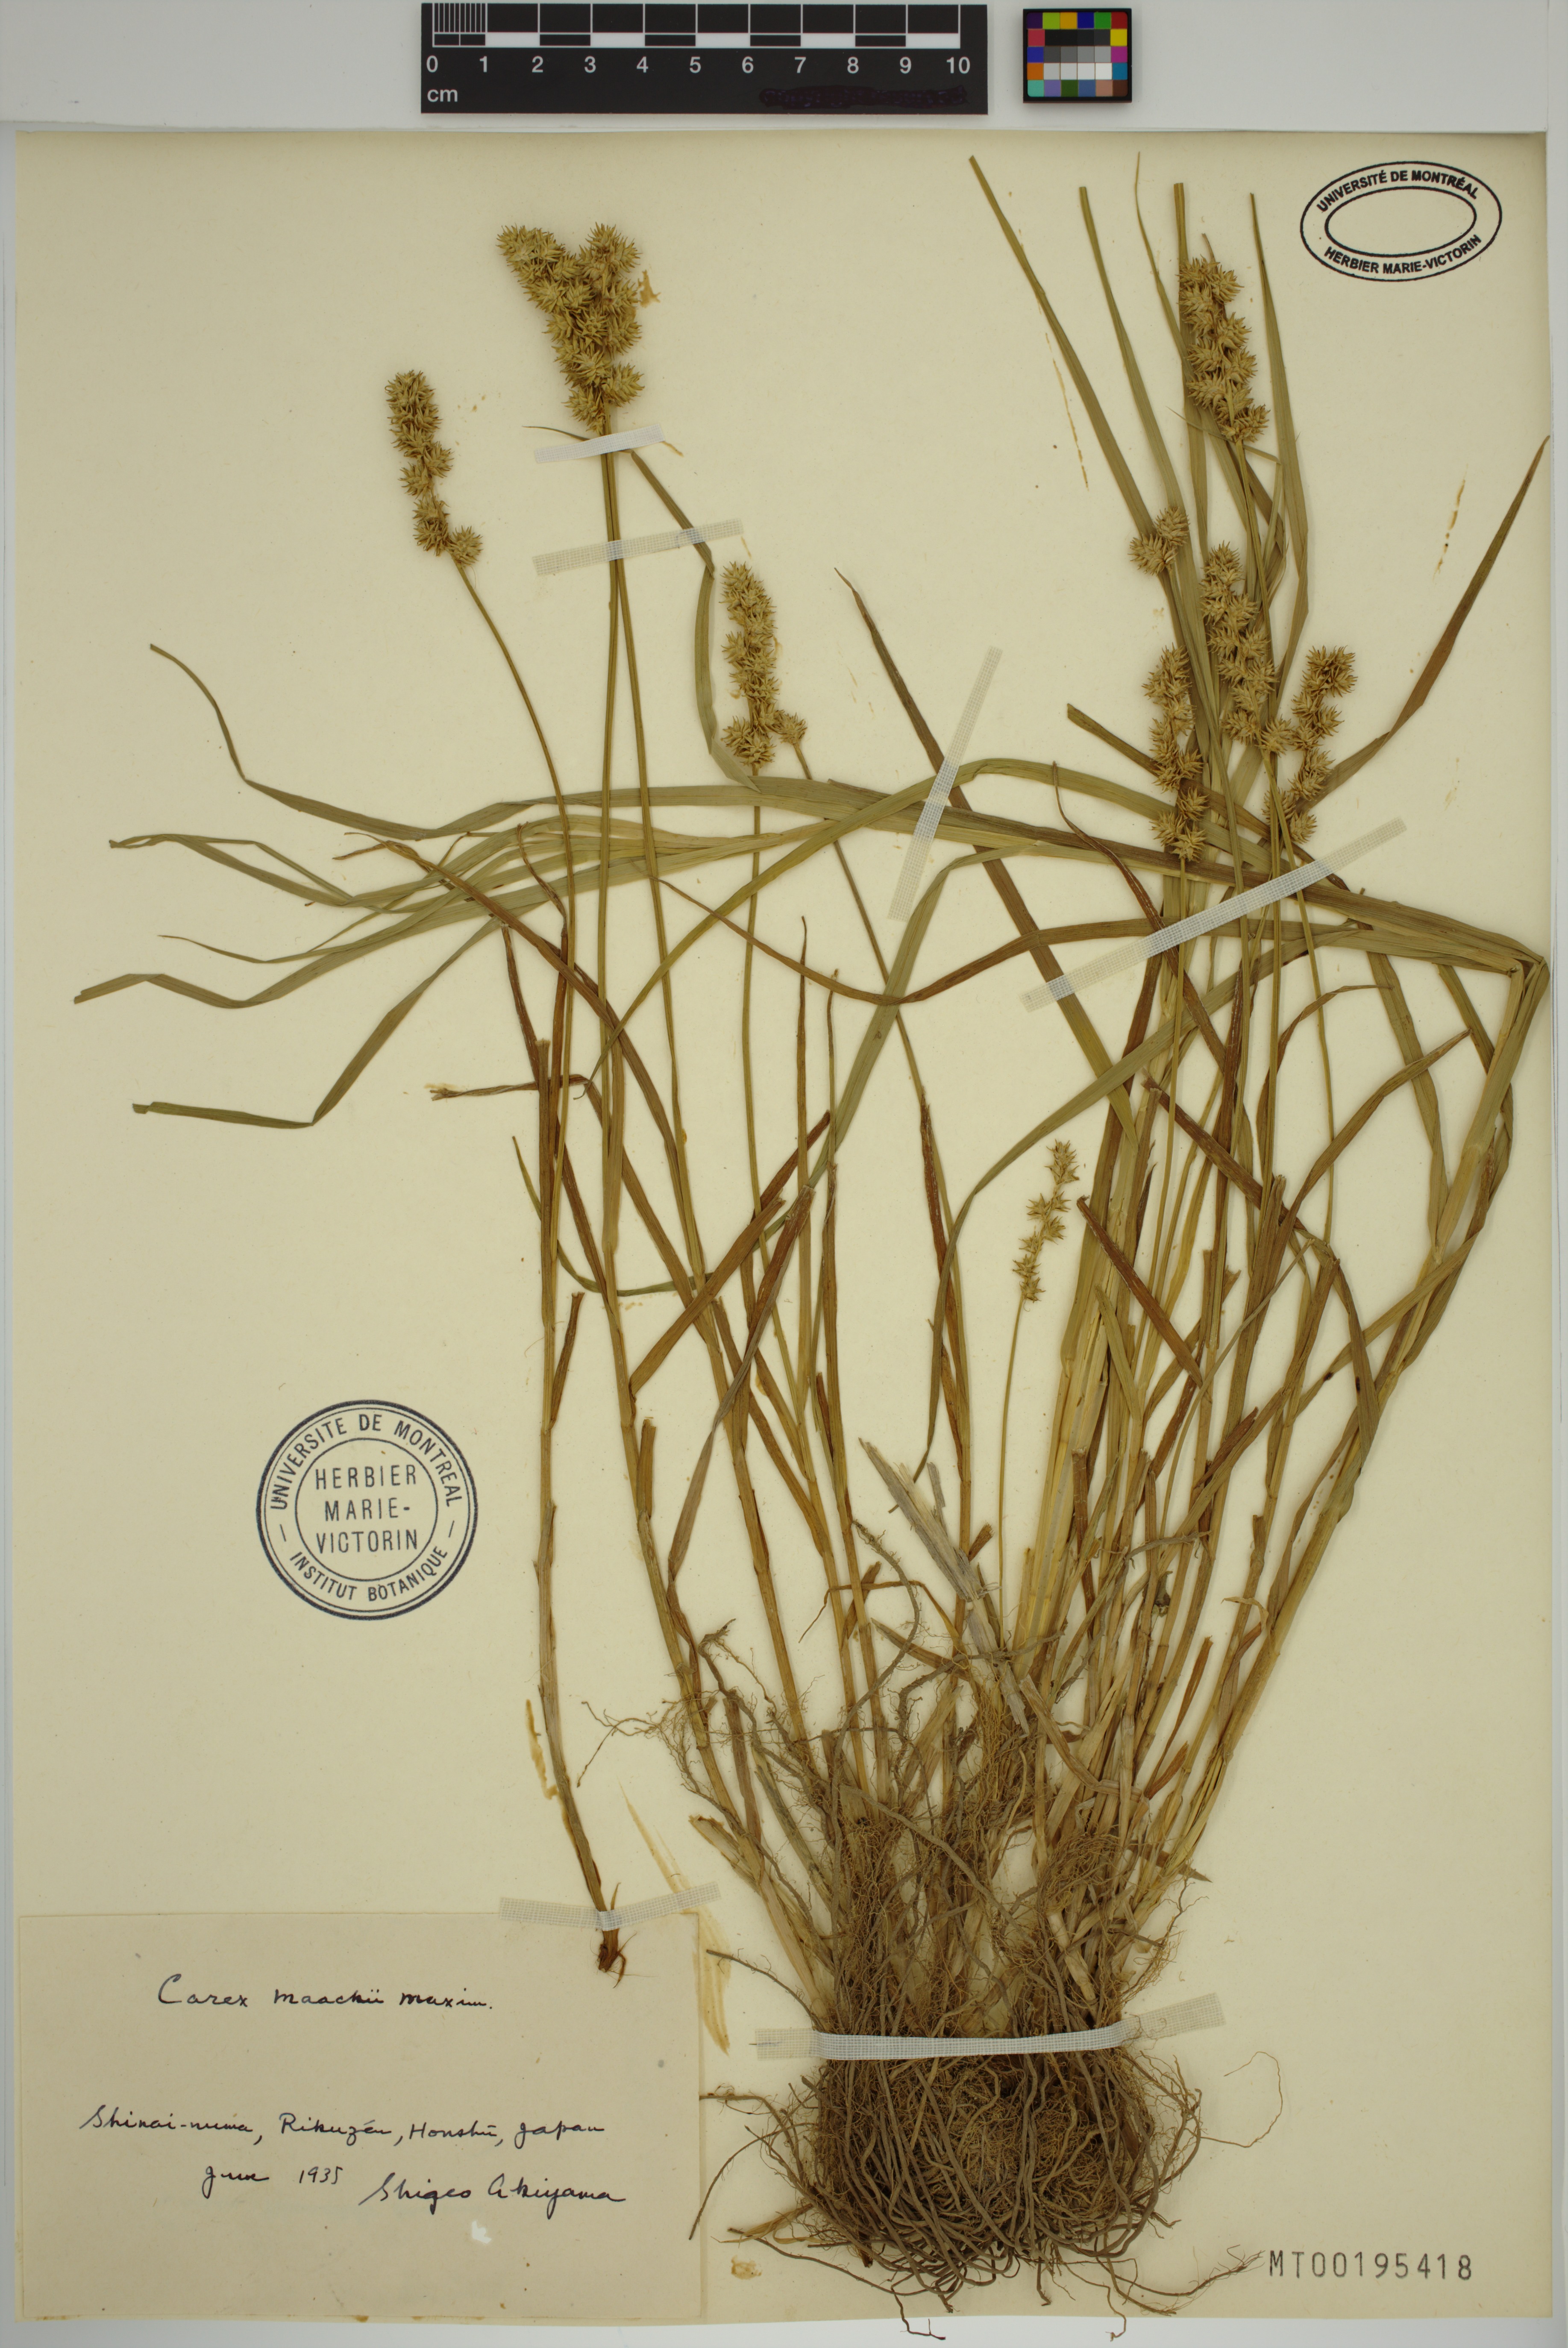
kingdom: Plantae
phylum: Tracheophyta
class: Liliopsida
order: Poales
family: Cyperaceae
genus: Carex
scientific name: Carex maackii
